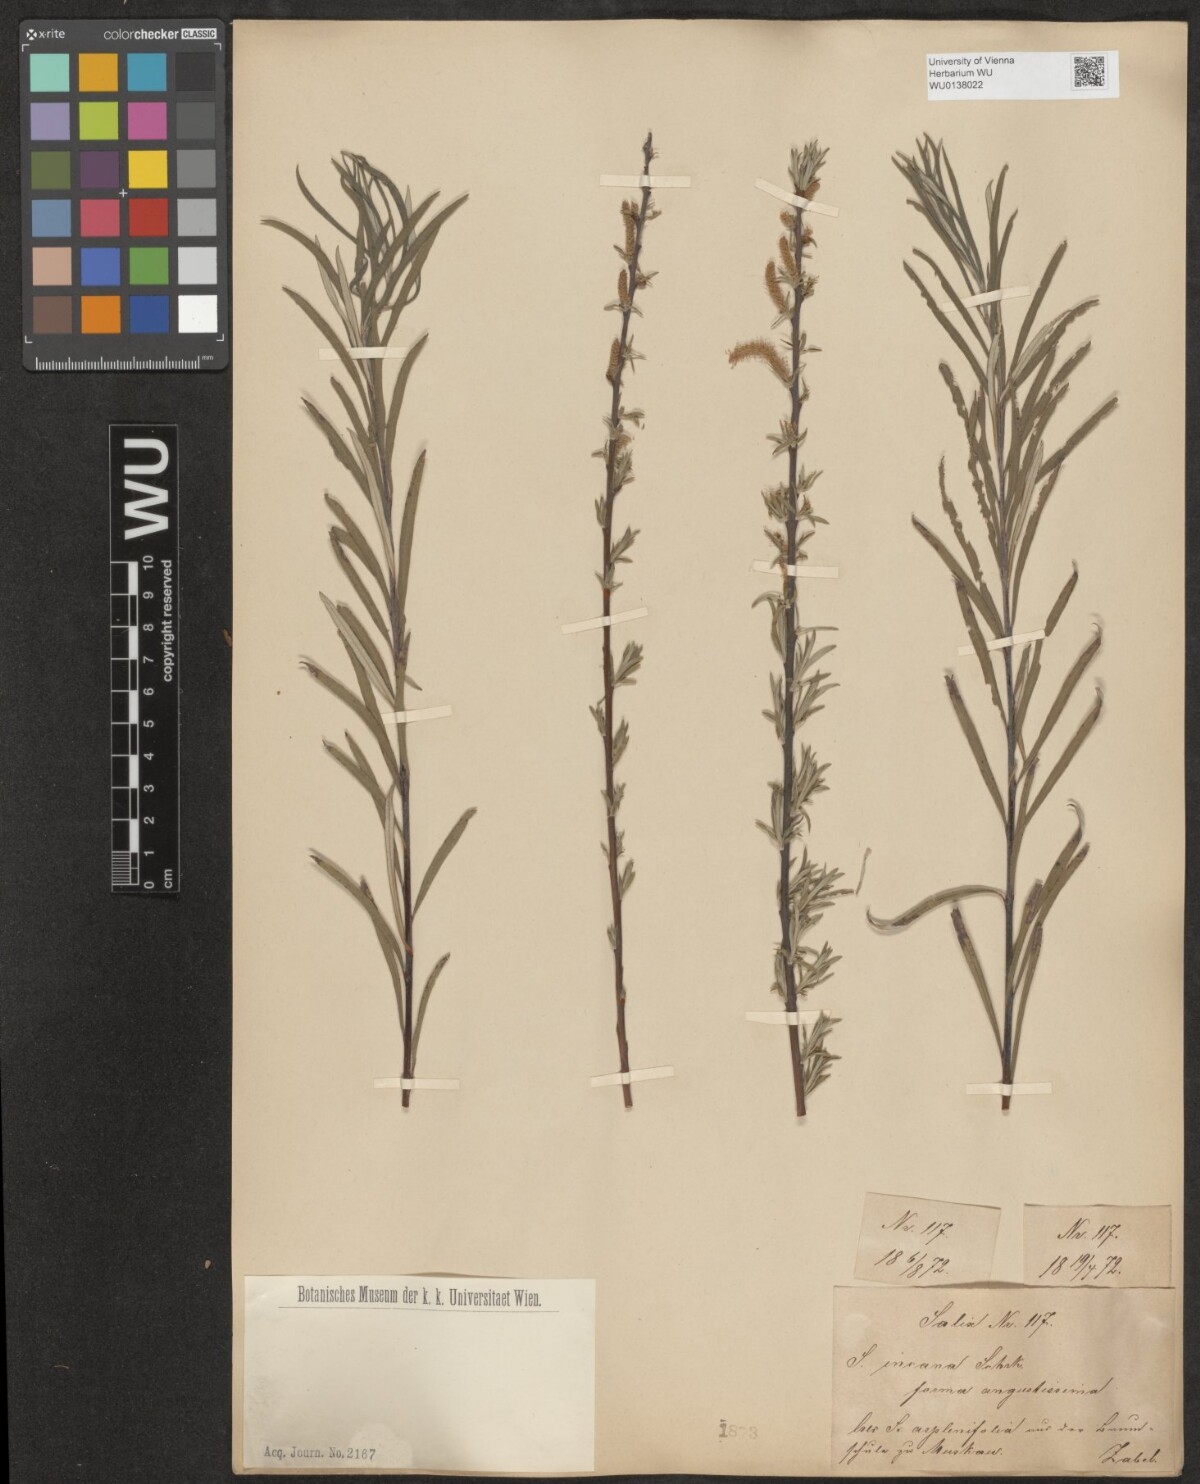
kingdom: Plantae
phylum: Tracheophyta
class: Magnoliopsida
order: Malpighiales
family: Salicaceae
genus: Salix
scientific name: Salix eleagnos
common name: Elaeagnus willow
